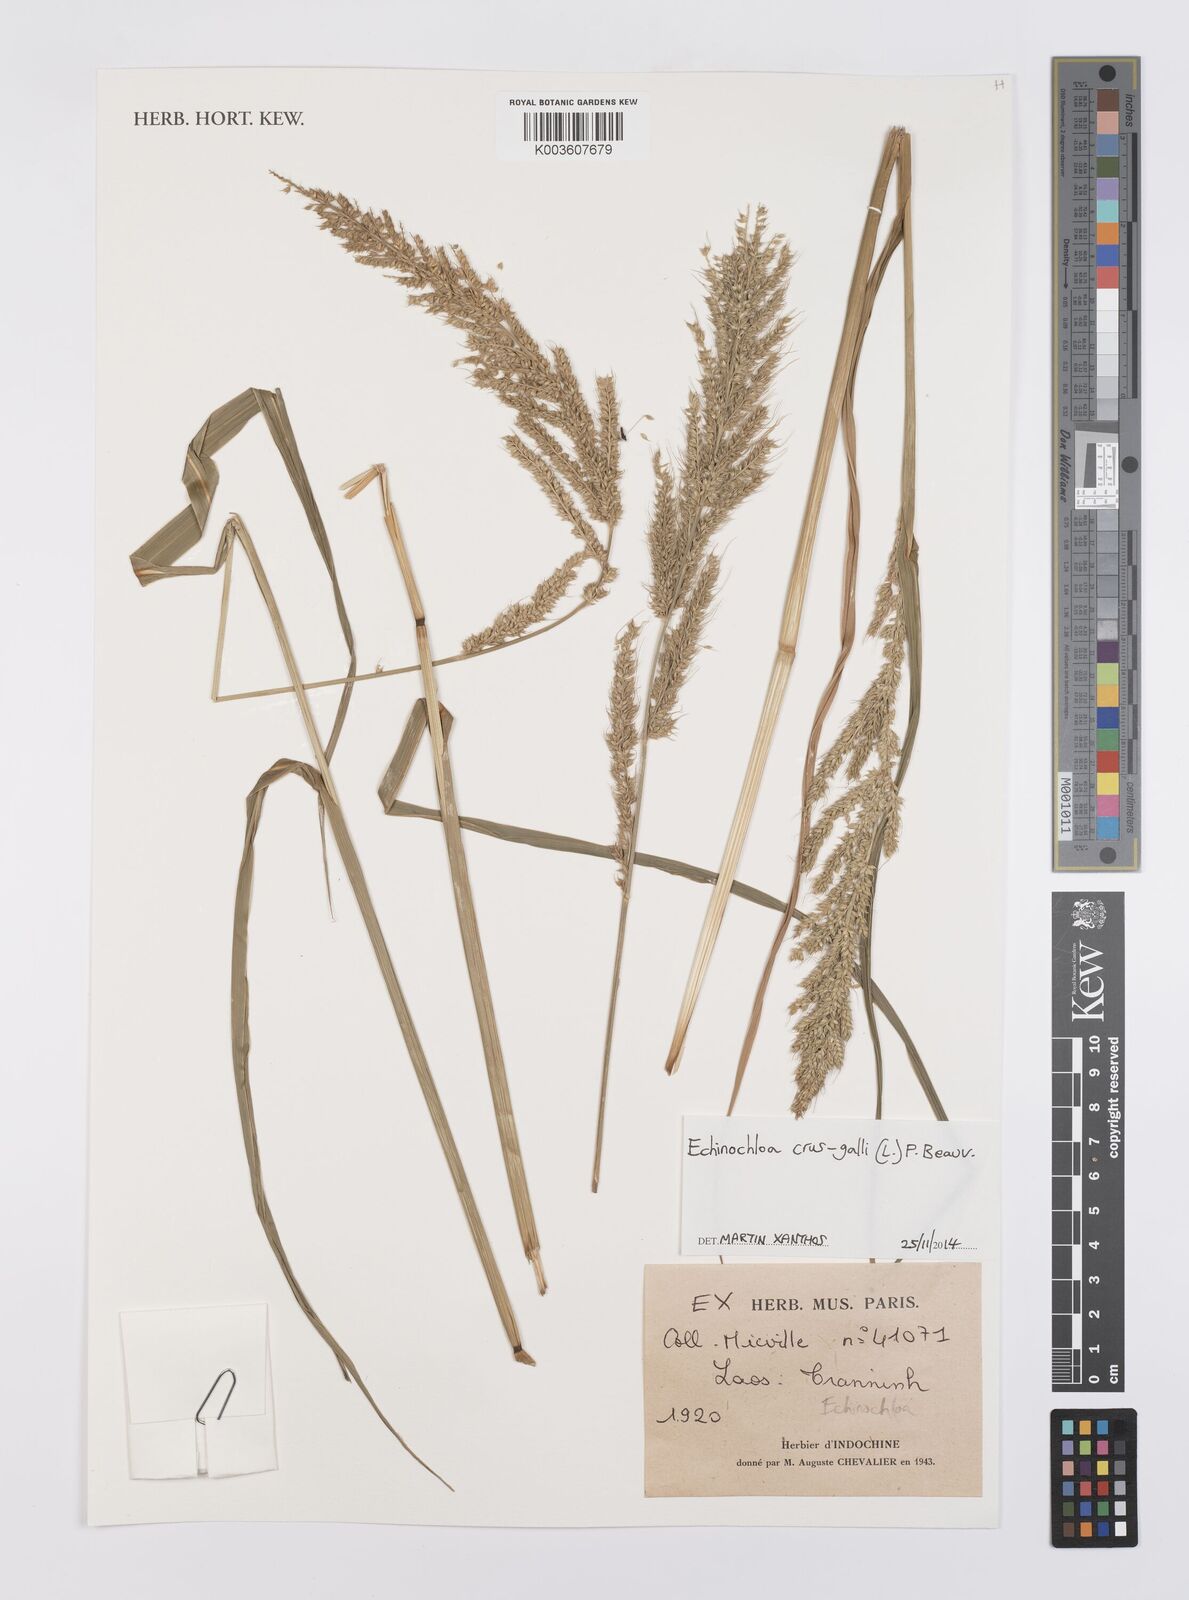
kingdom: Plantae
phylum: Tracheophyta
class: Liliopsida
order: Poales
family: Poaceae
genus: Echinochloa
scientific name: Echinochloa crus-galli
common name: Cockspur
